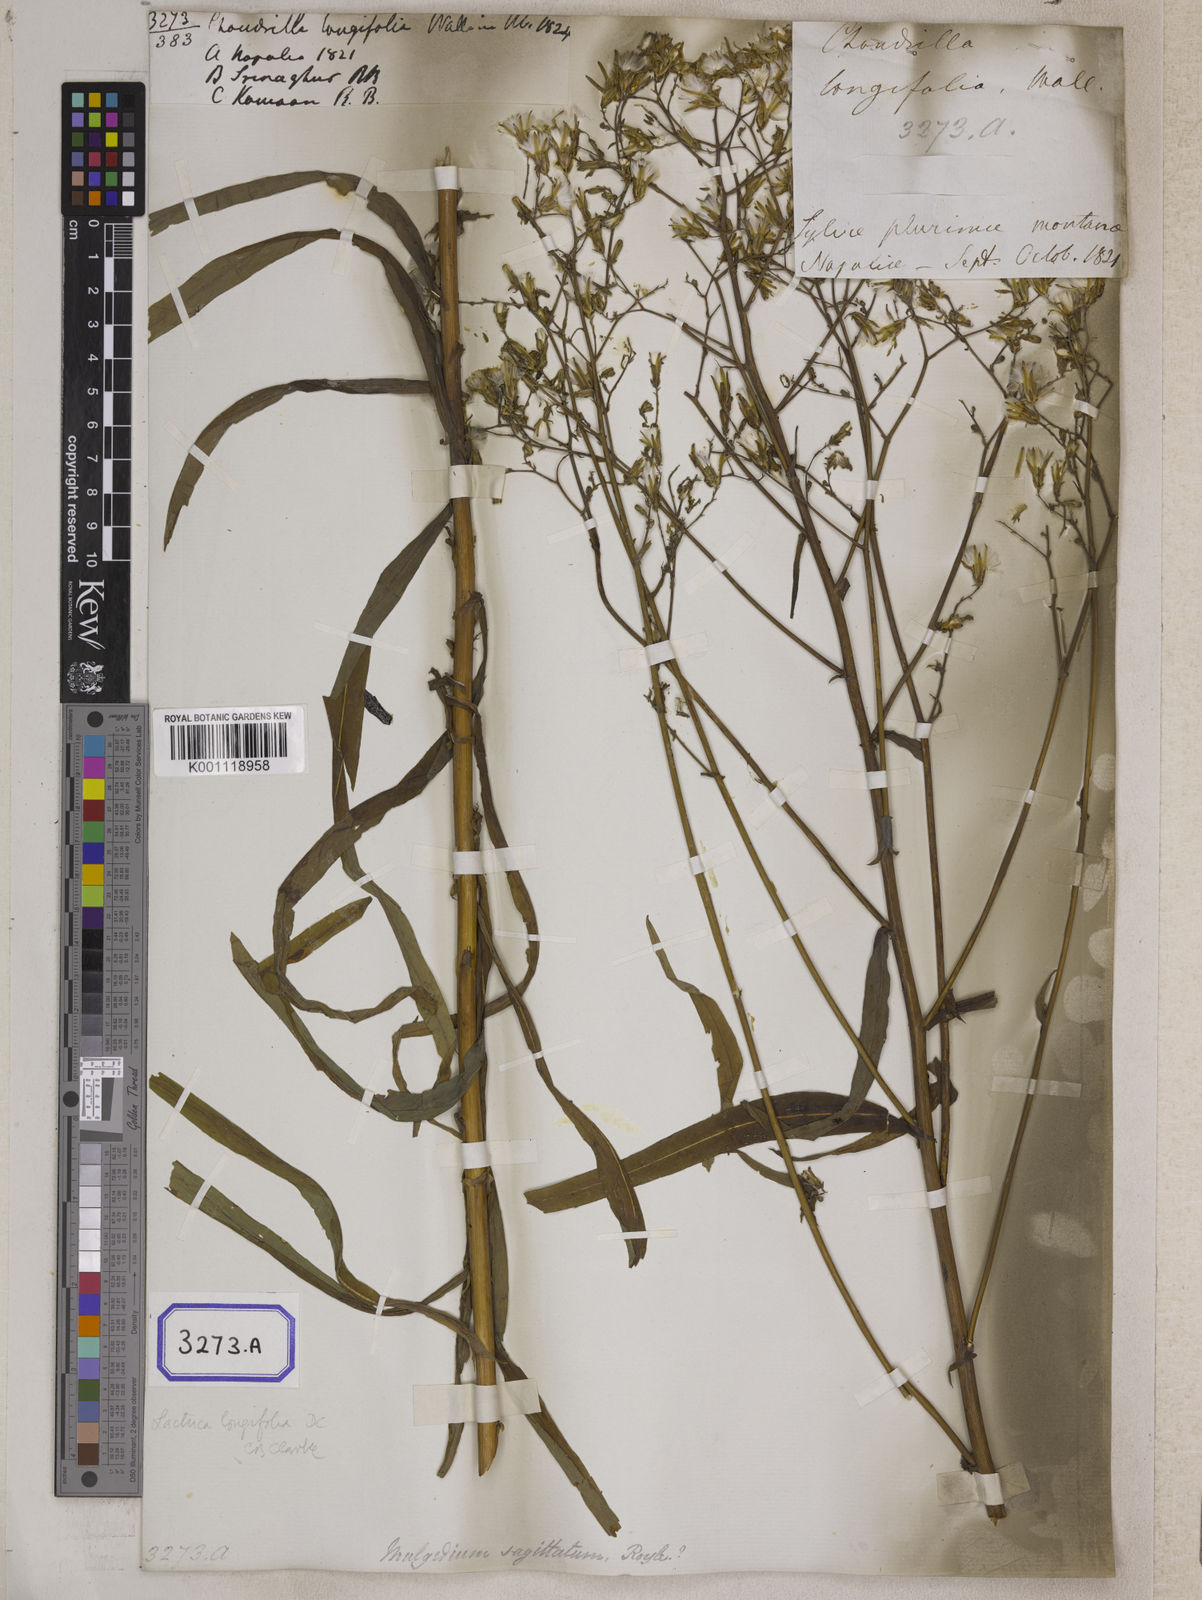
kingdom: Plantae
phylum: Tracheophyta
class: Magnoliopsida
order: Asterales
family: Asteraceae
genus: Lactuca
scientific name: Lactuca dolichophylla
